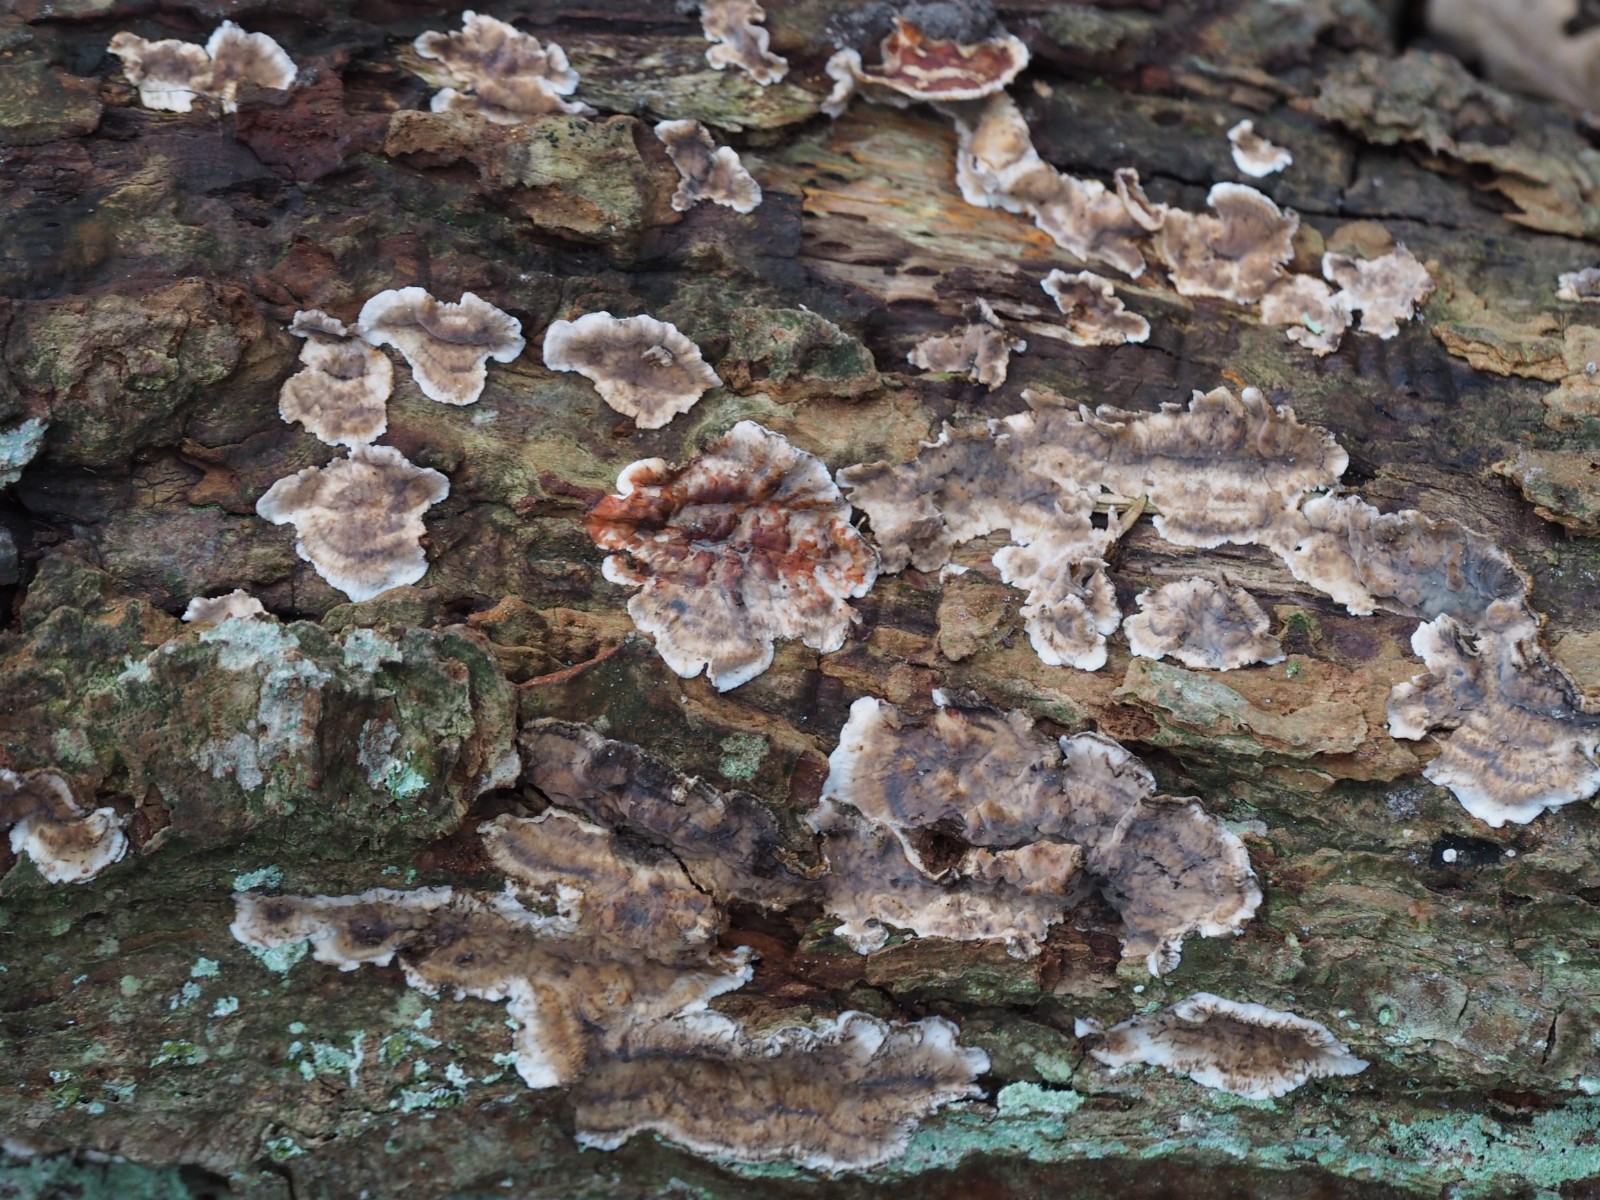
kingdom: Fungi
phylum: Basidiomycota
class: Agaricomycetes
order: Russulales
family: Stereaceae
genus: Stereum
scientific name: Stereum gausapatum
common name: tynd lædersvamp
